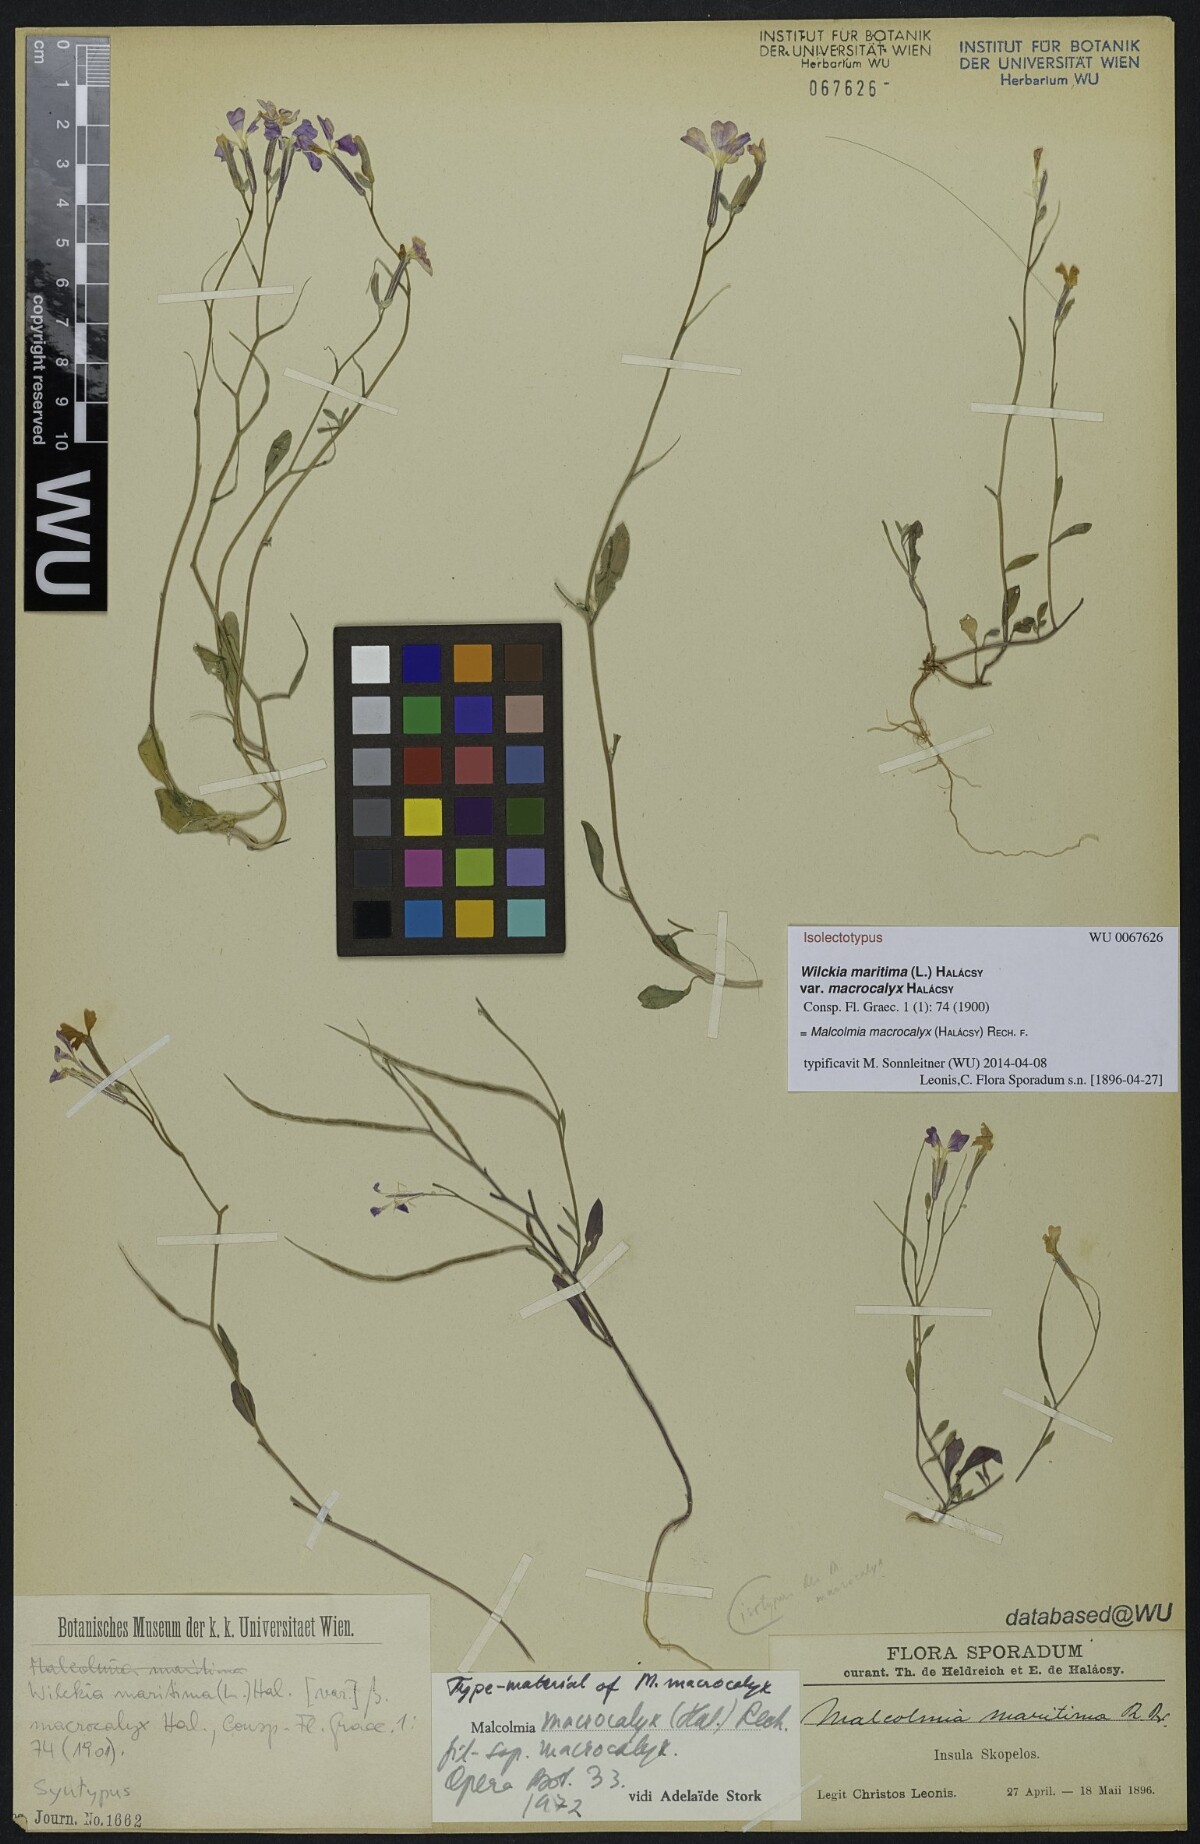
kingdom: Plantae
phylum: Tracheophyta
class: Magnoliopsida
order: Brassicales
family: Brassicaceae
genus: Malcolmia
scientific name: Malcolmia macrocalyx
